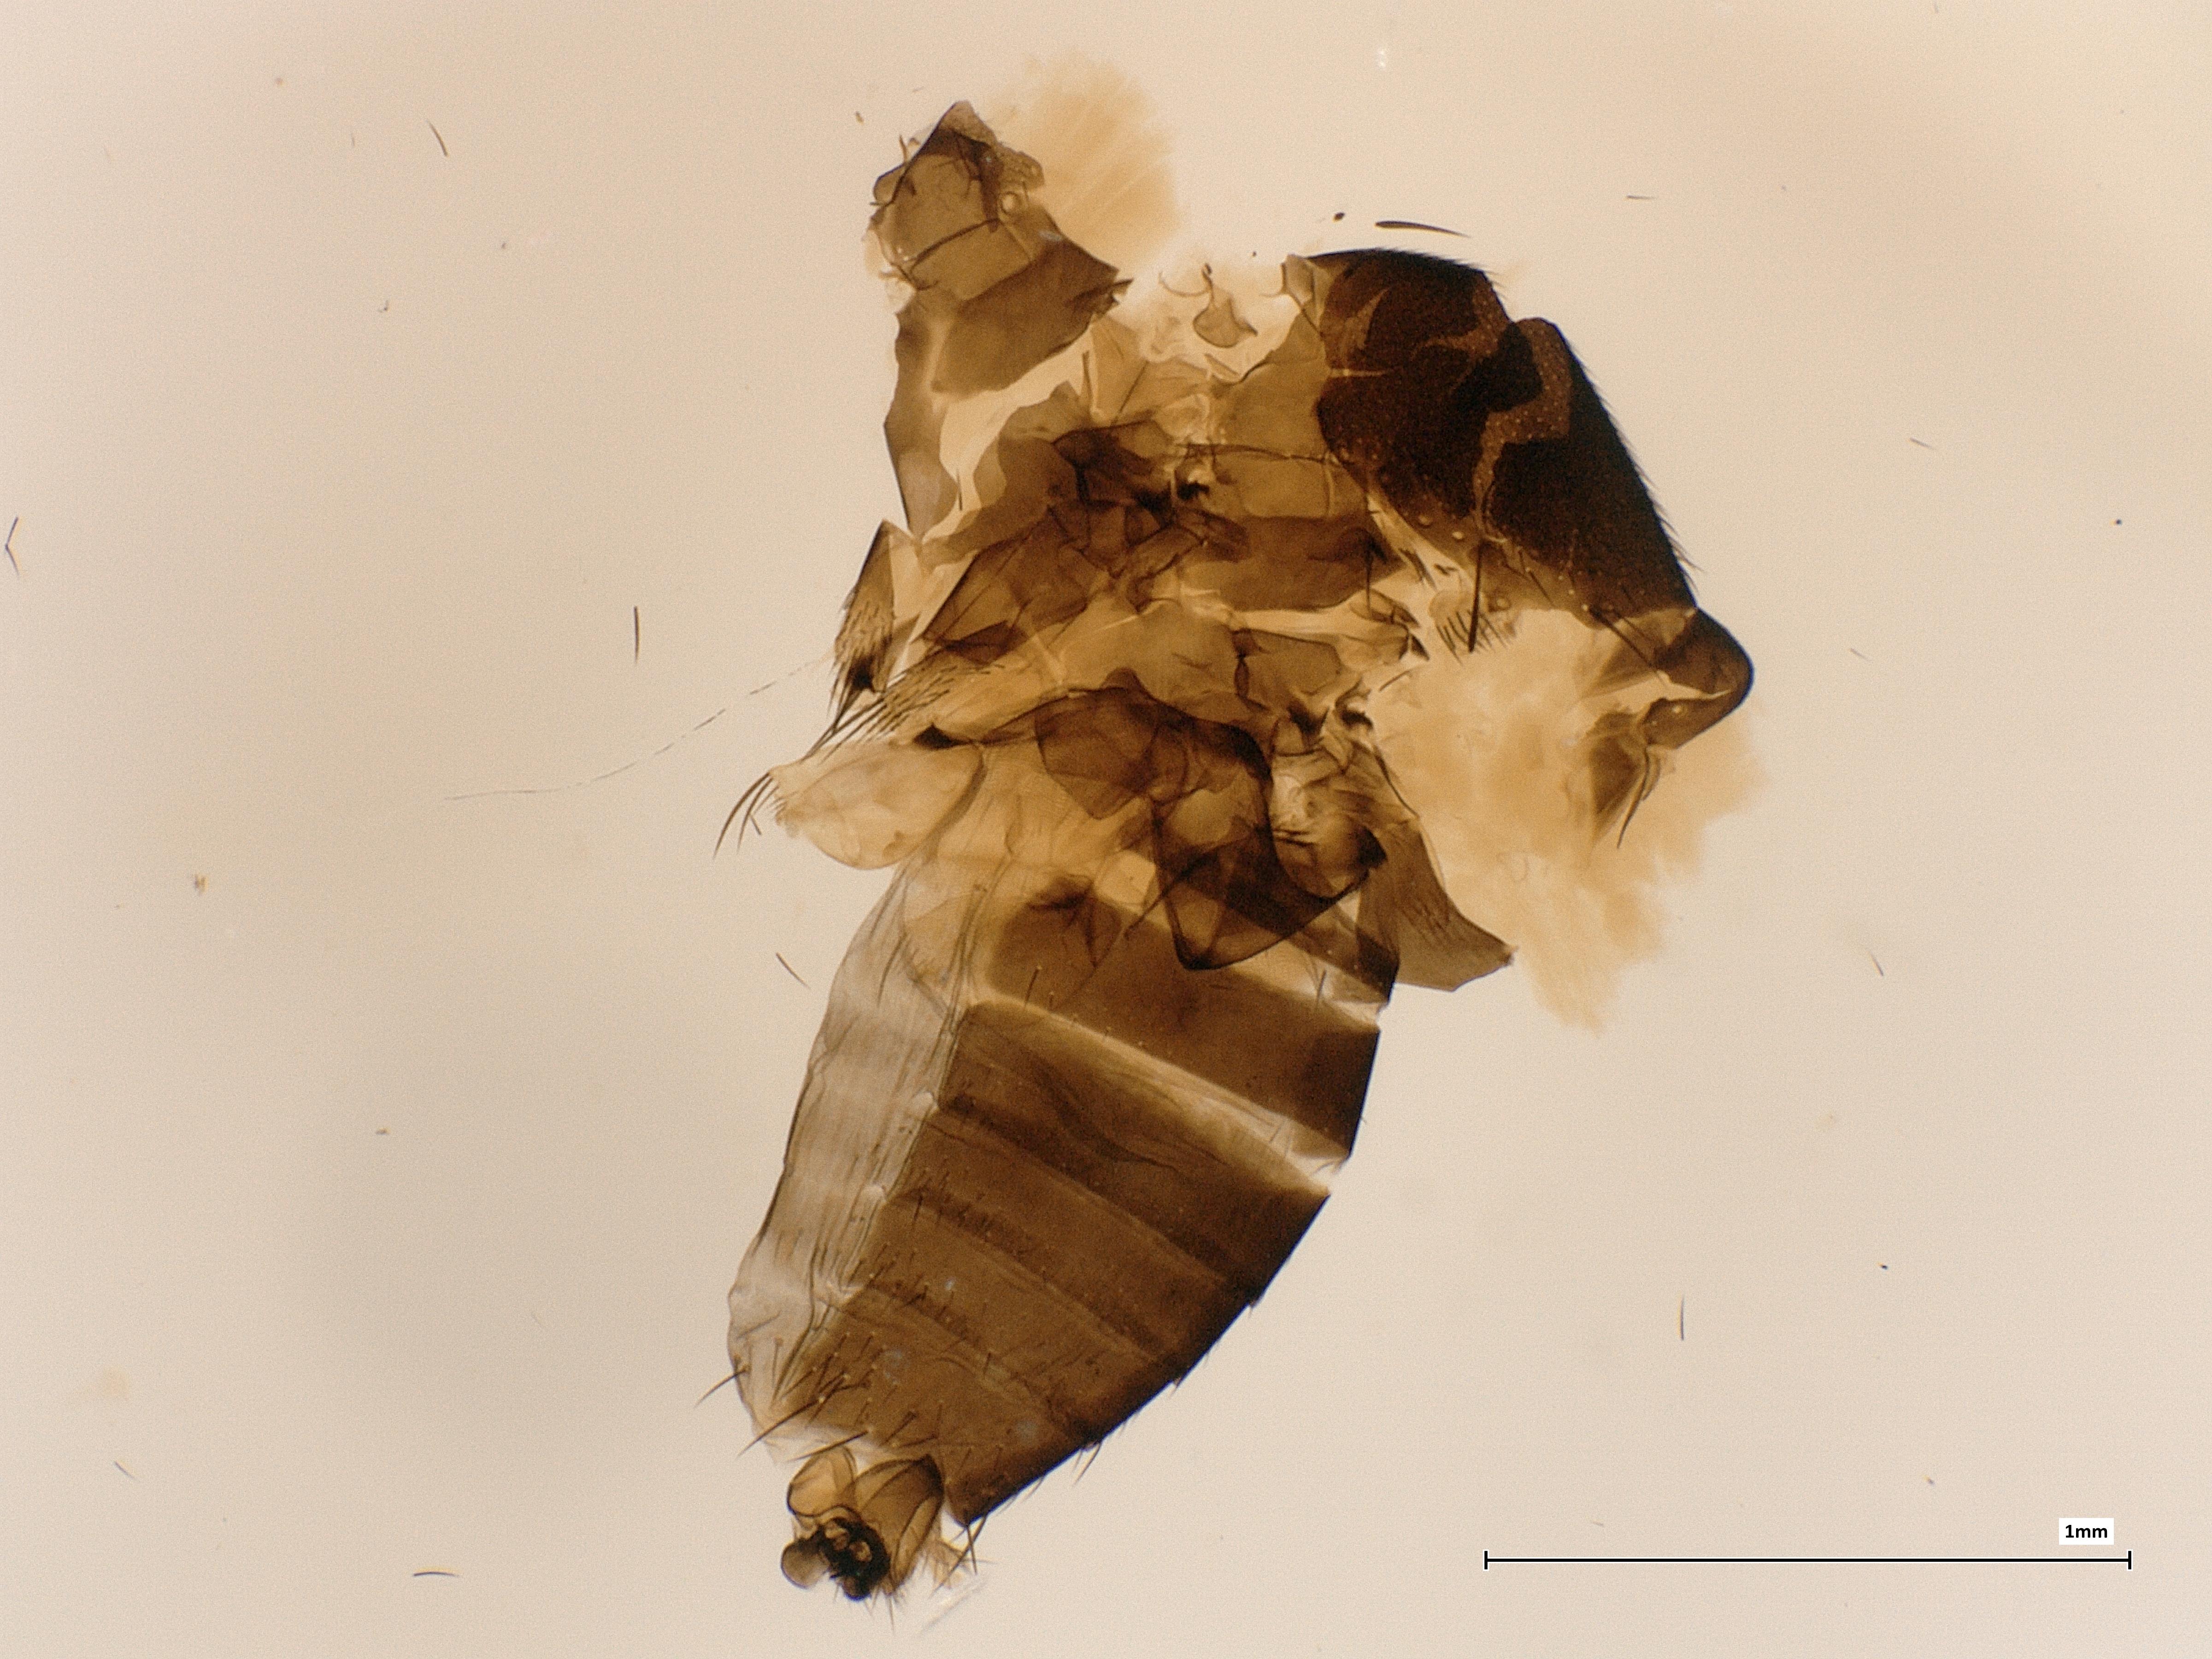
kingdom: Animalia
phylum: Arthropoda
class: Insecta
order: Diptera
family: Phoridae
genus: Megaselia
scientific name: Megaselia spinicincta
